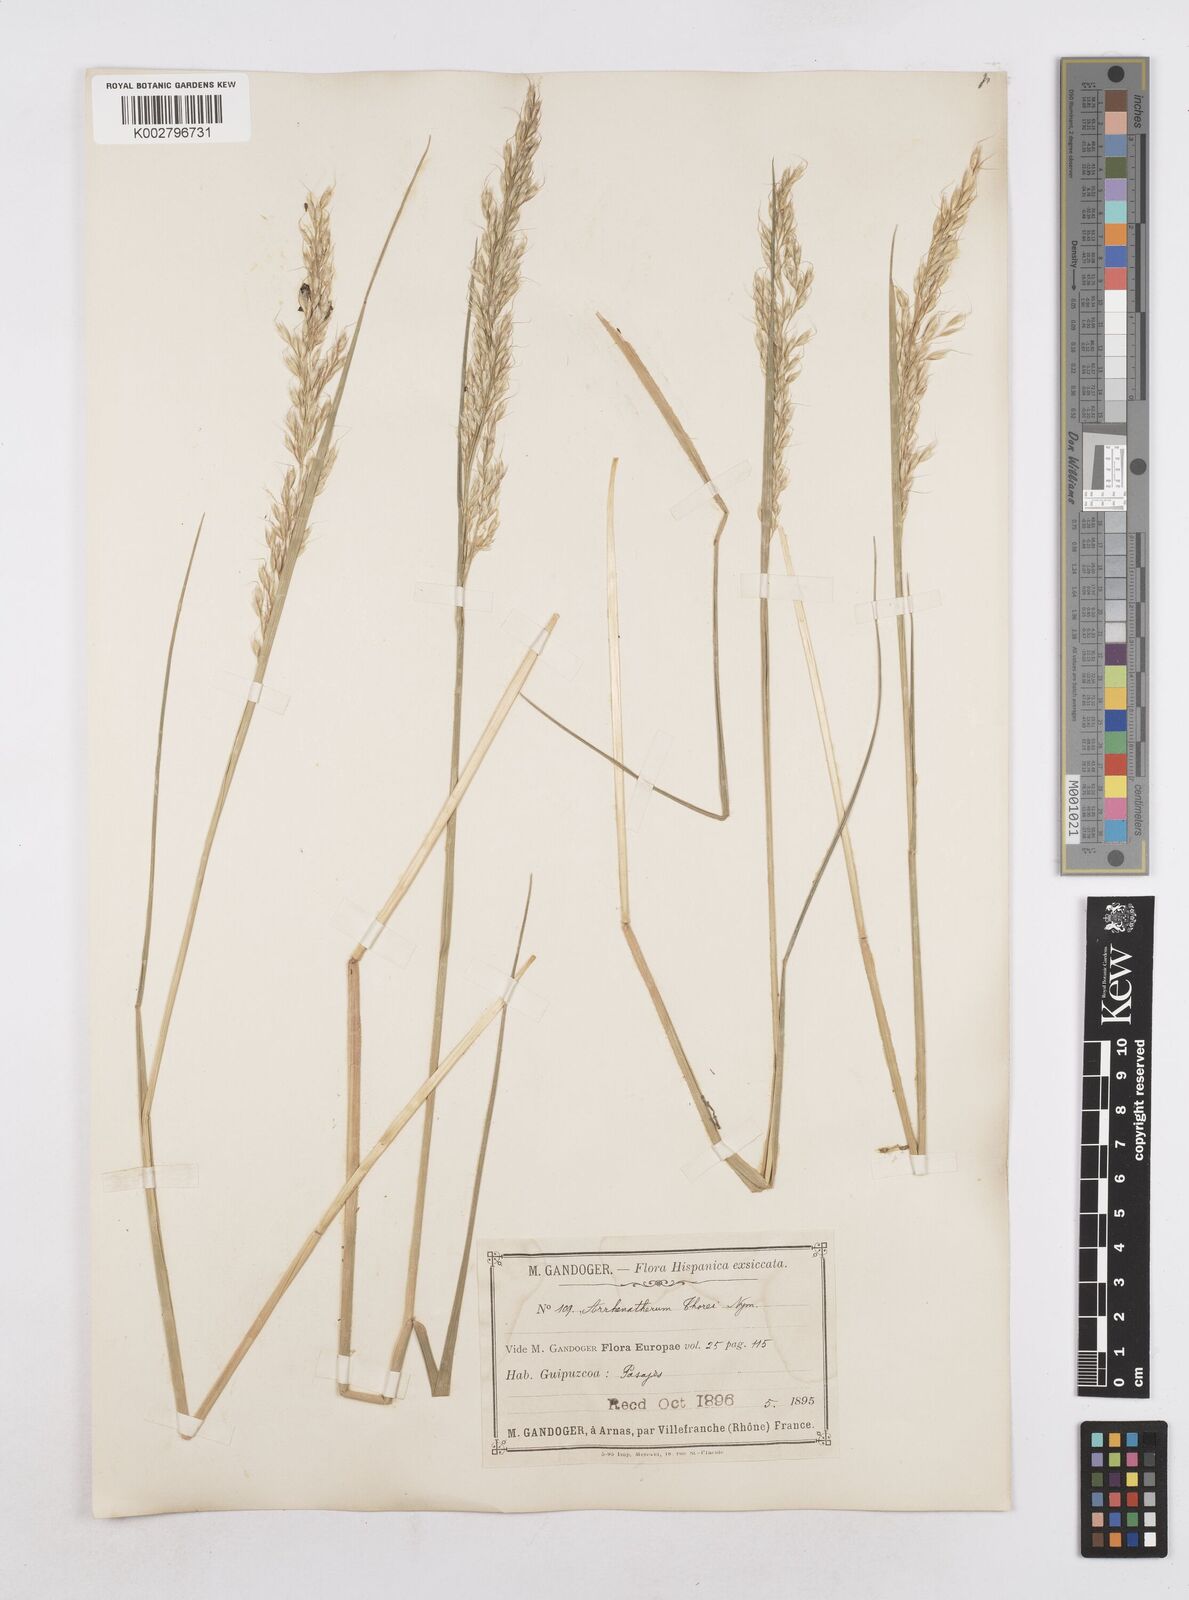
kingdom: Plantae
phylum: Tracheophyta
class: Liliopsida
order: Poales
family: Poaceae
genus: Arrhenatherum
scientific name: Arrhenatherum longifolium
